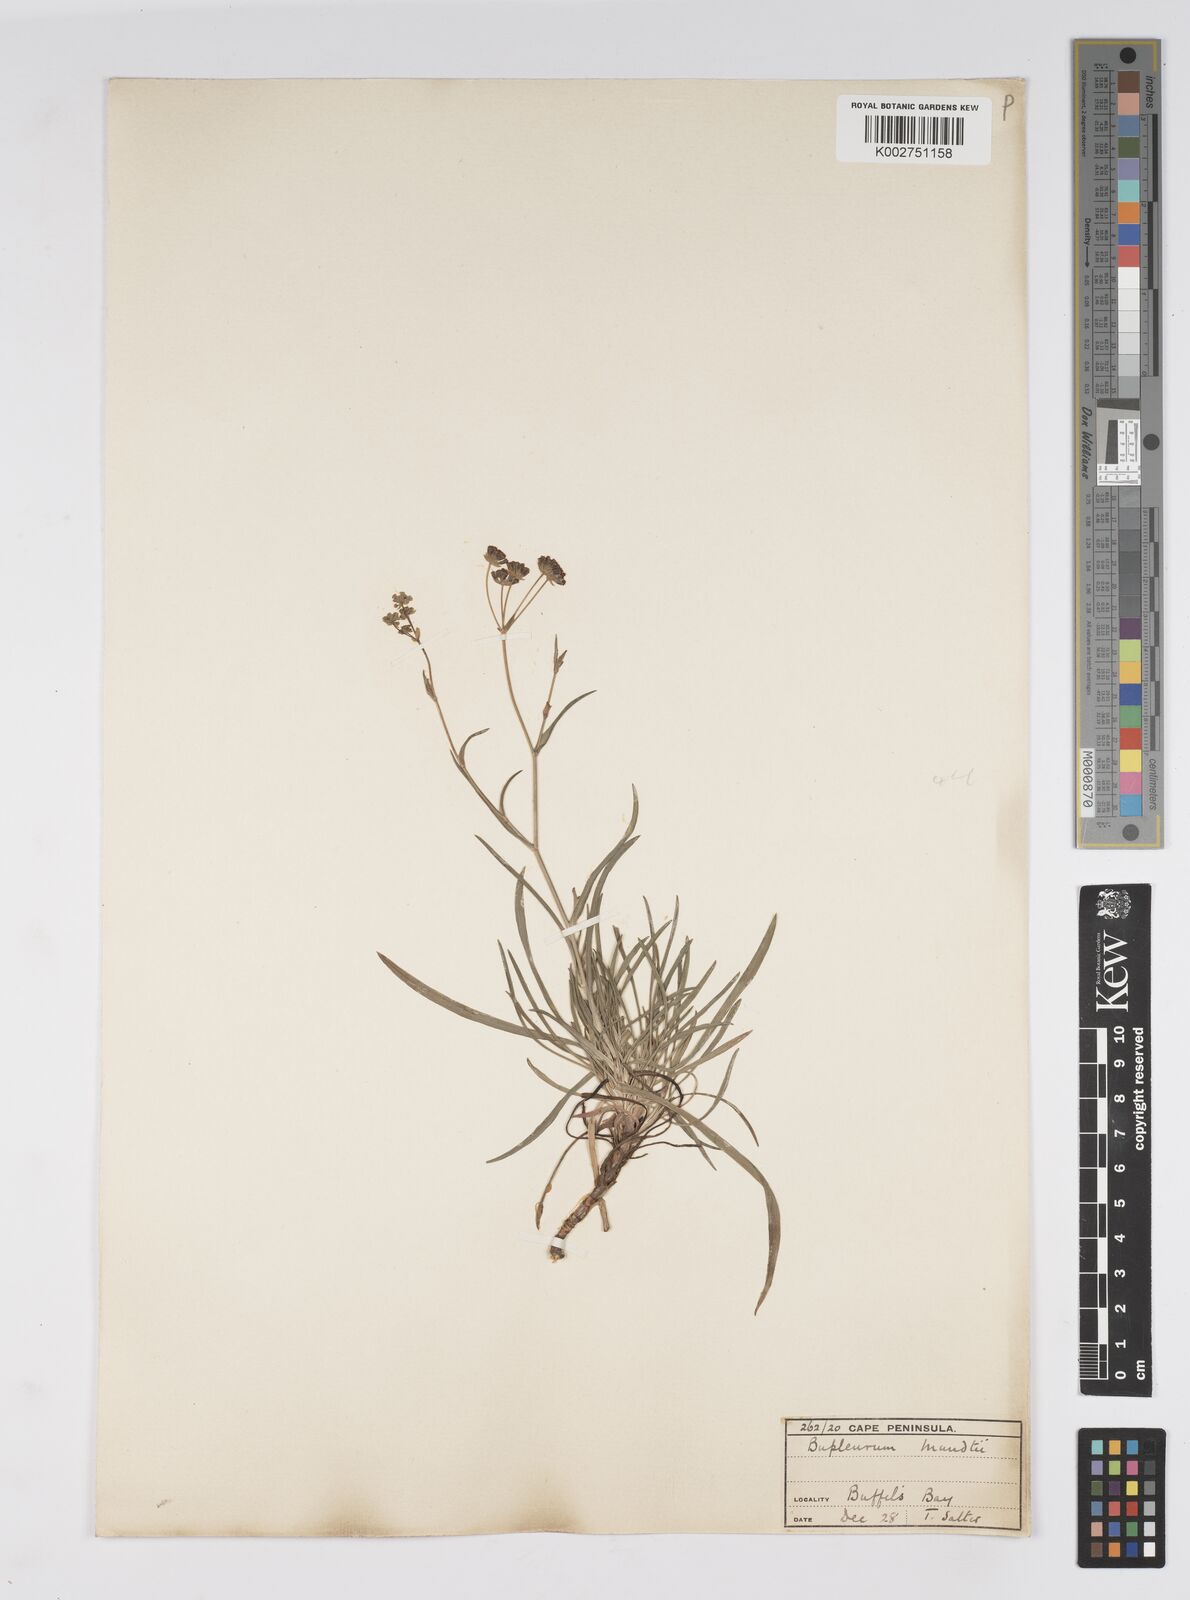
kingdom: Plantae
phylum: Tracheophyta
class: Magnoliopsida
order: Apiales
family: Apiaceae
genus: Bupleurum
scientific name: Bupleurum mundii
